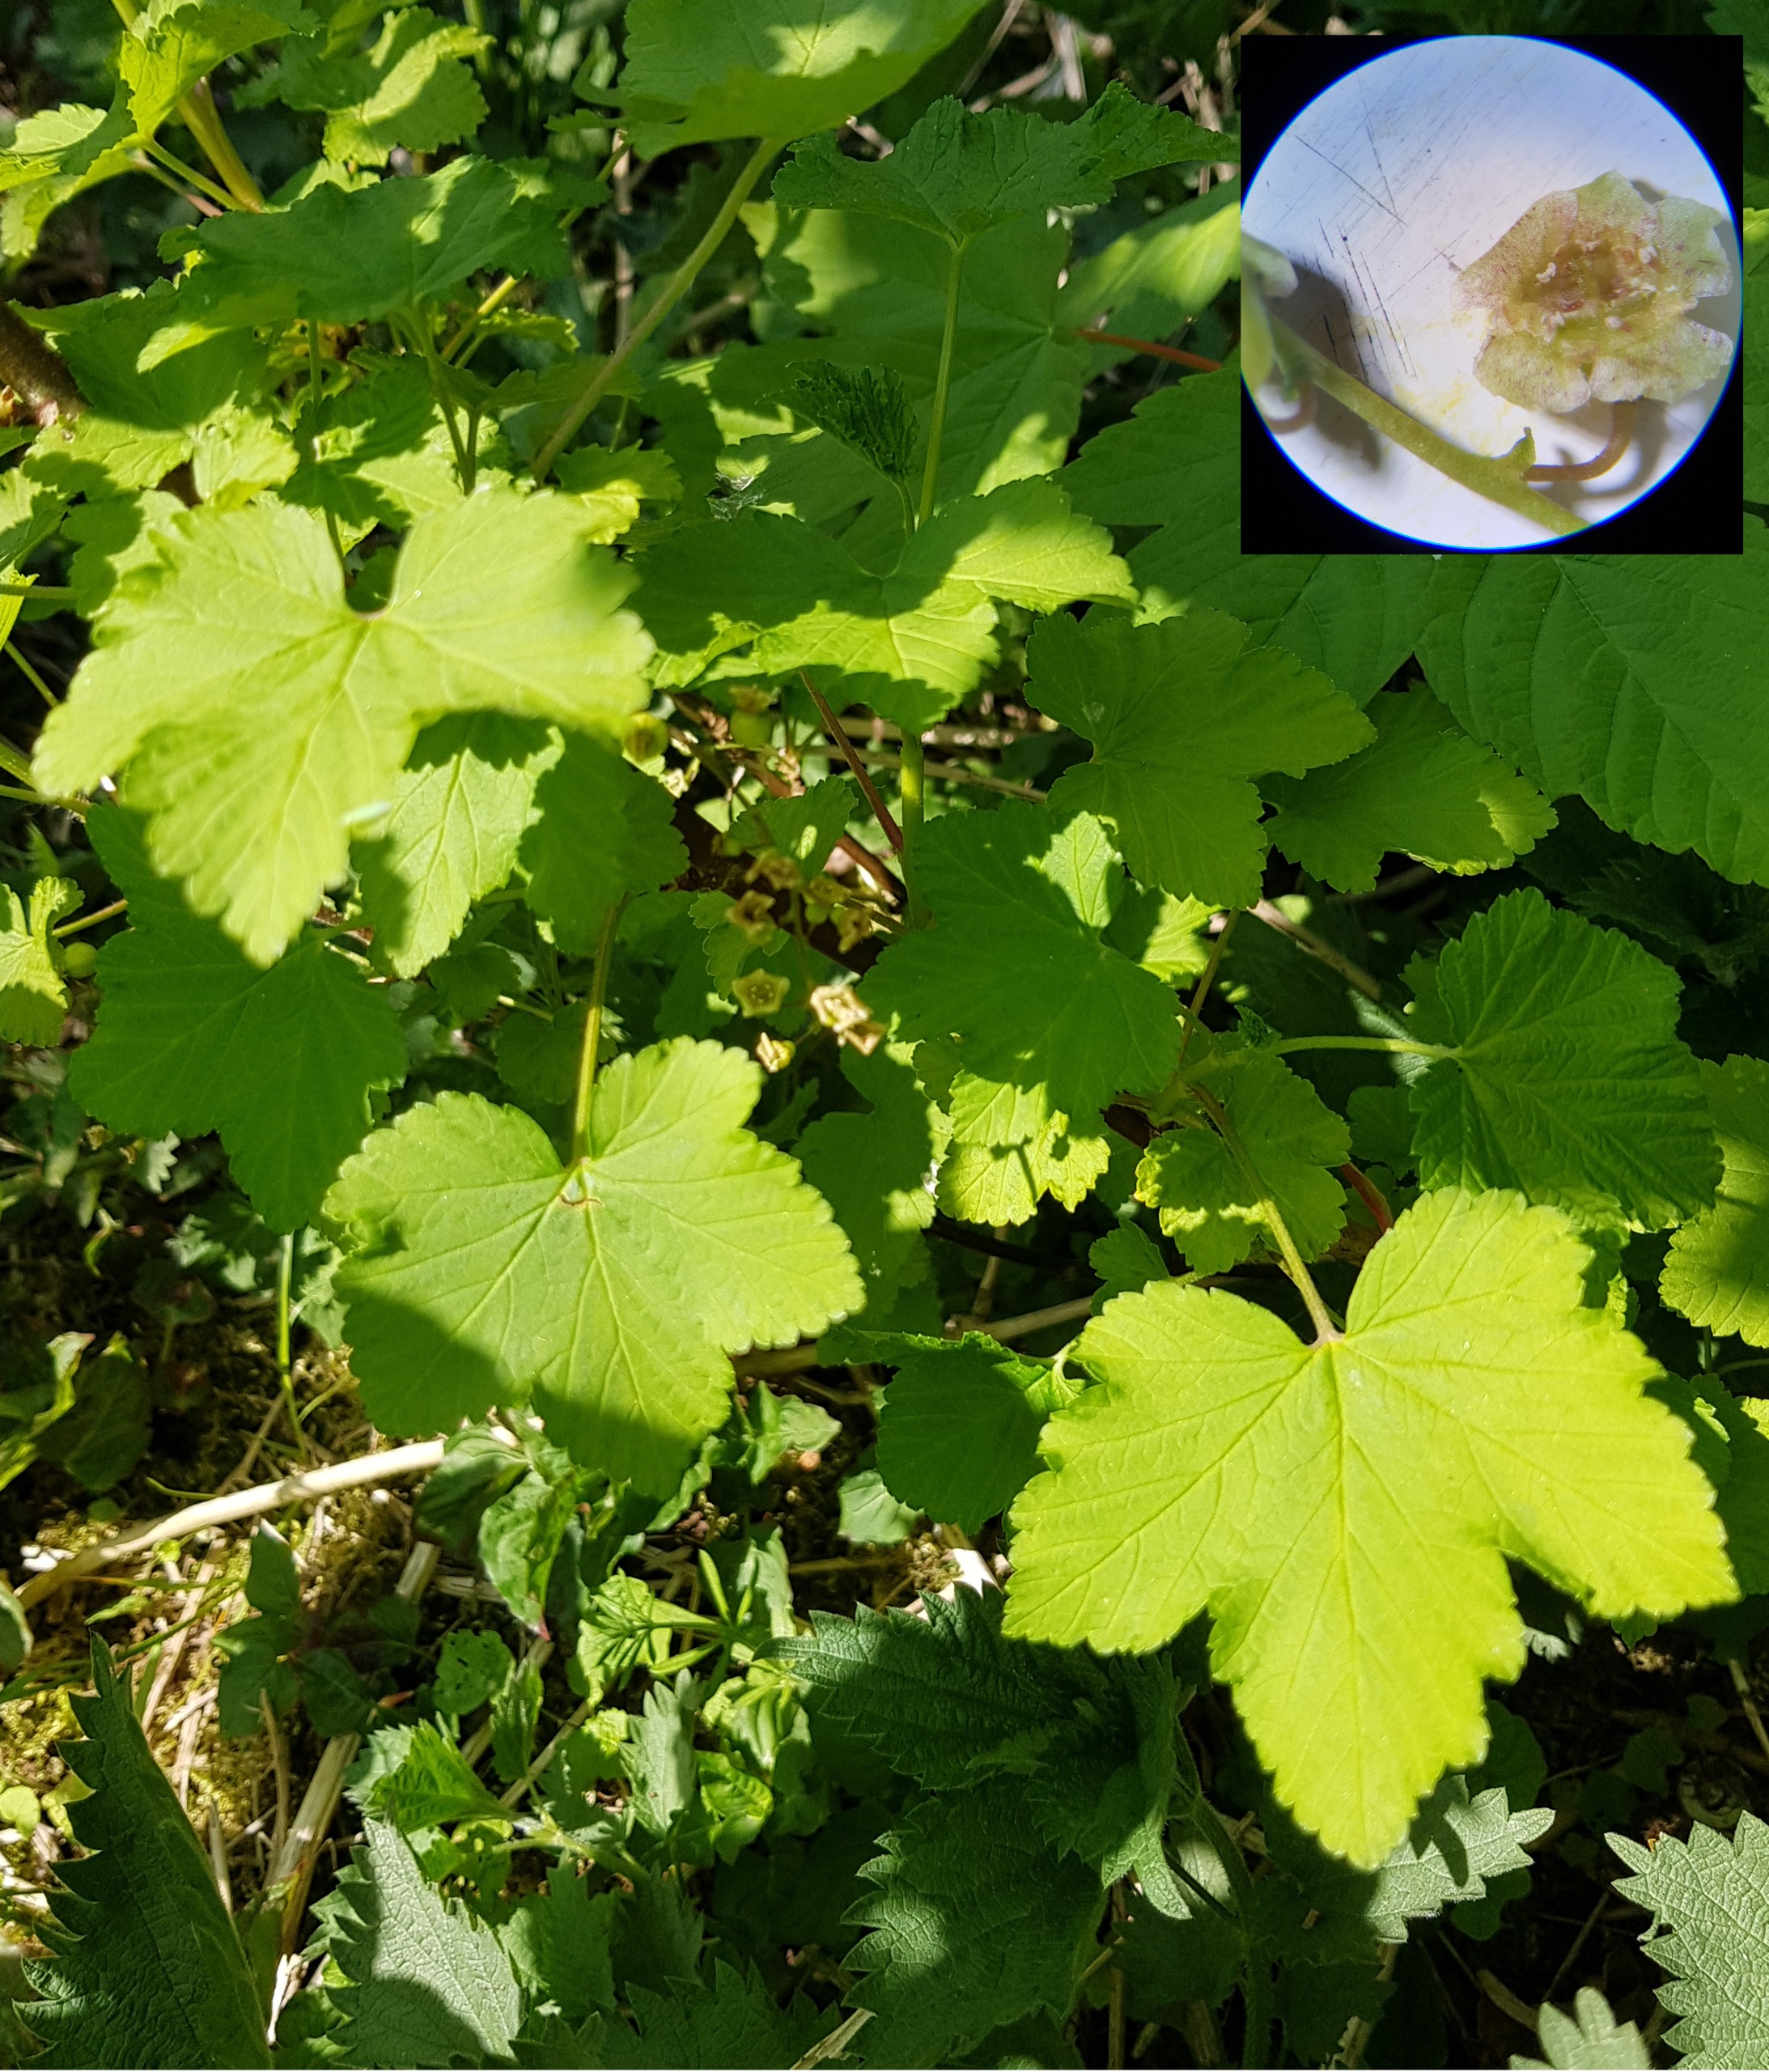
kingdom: Plantae
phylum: Tracheophyta
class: Magnoliopsida
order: Saxifragales
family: Grossulariaceae
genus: Ribes
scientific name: Ribes rubrum
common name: Slots-ribs
